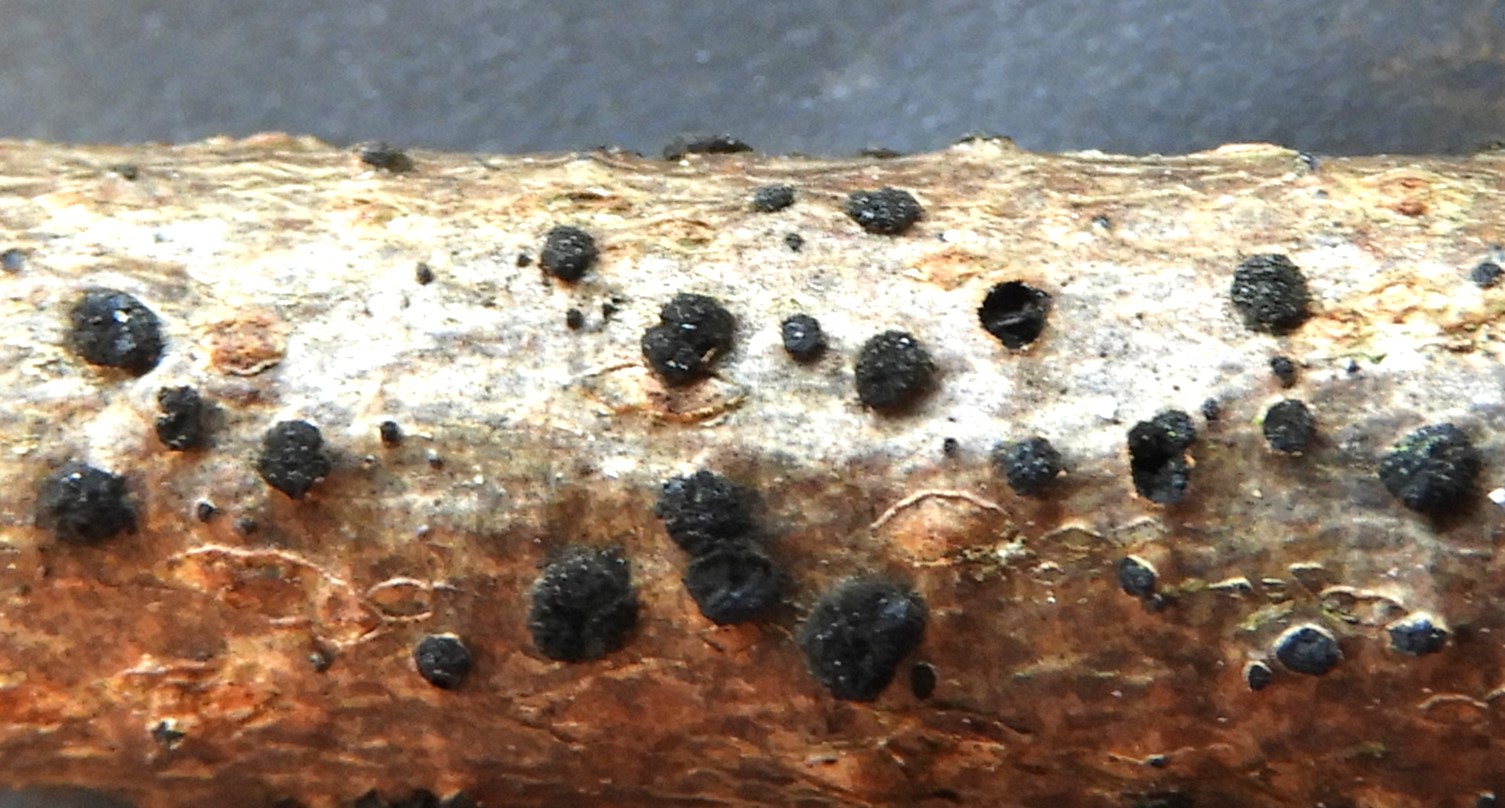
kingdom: Fungi
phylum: Ascomycota
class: Dothideomycetes
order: Pleosporales
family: Massarinaceae
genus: Helminthosporium
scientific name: Helminthosporium oligosporum
